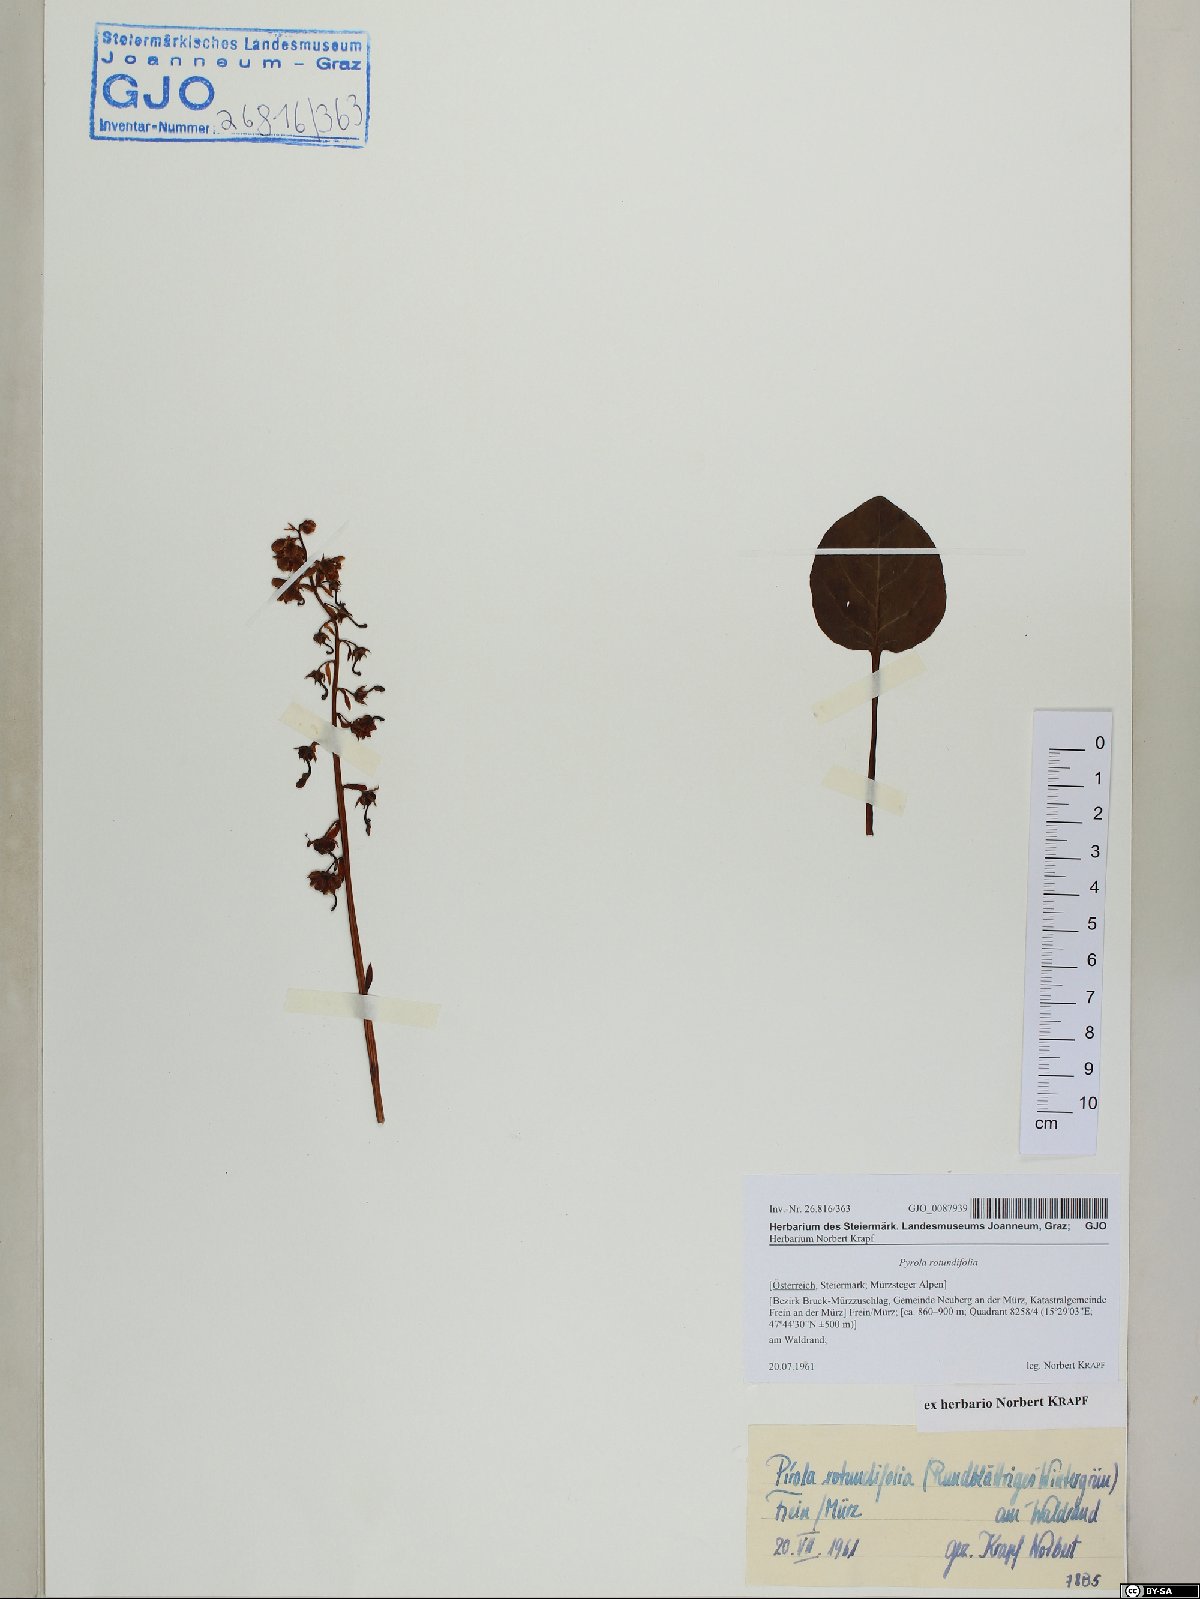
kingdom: Plantae
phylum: Tracheophyta
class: Magnoliopsida
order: Ericales
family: Ericaceae
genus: Pyrola
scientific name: Pyrola rotundifolia
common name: Round-leaved wintergreen
